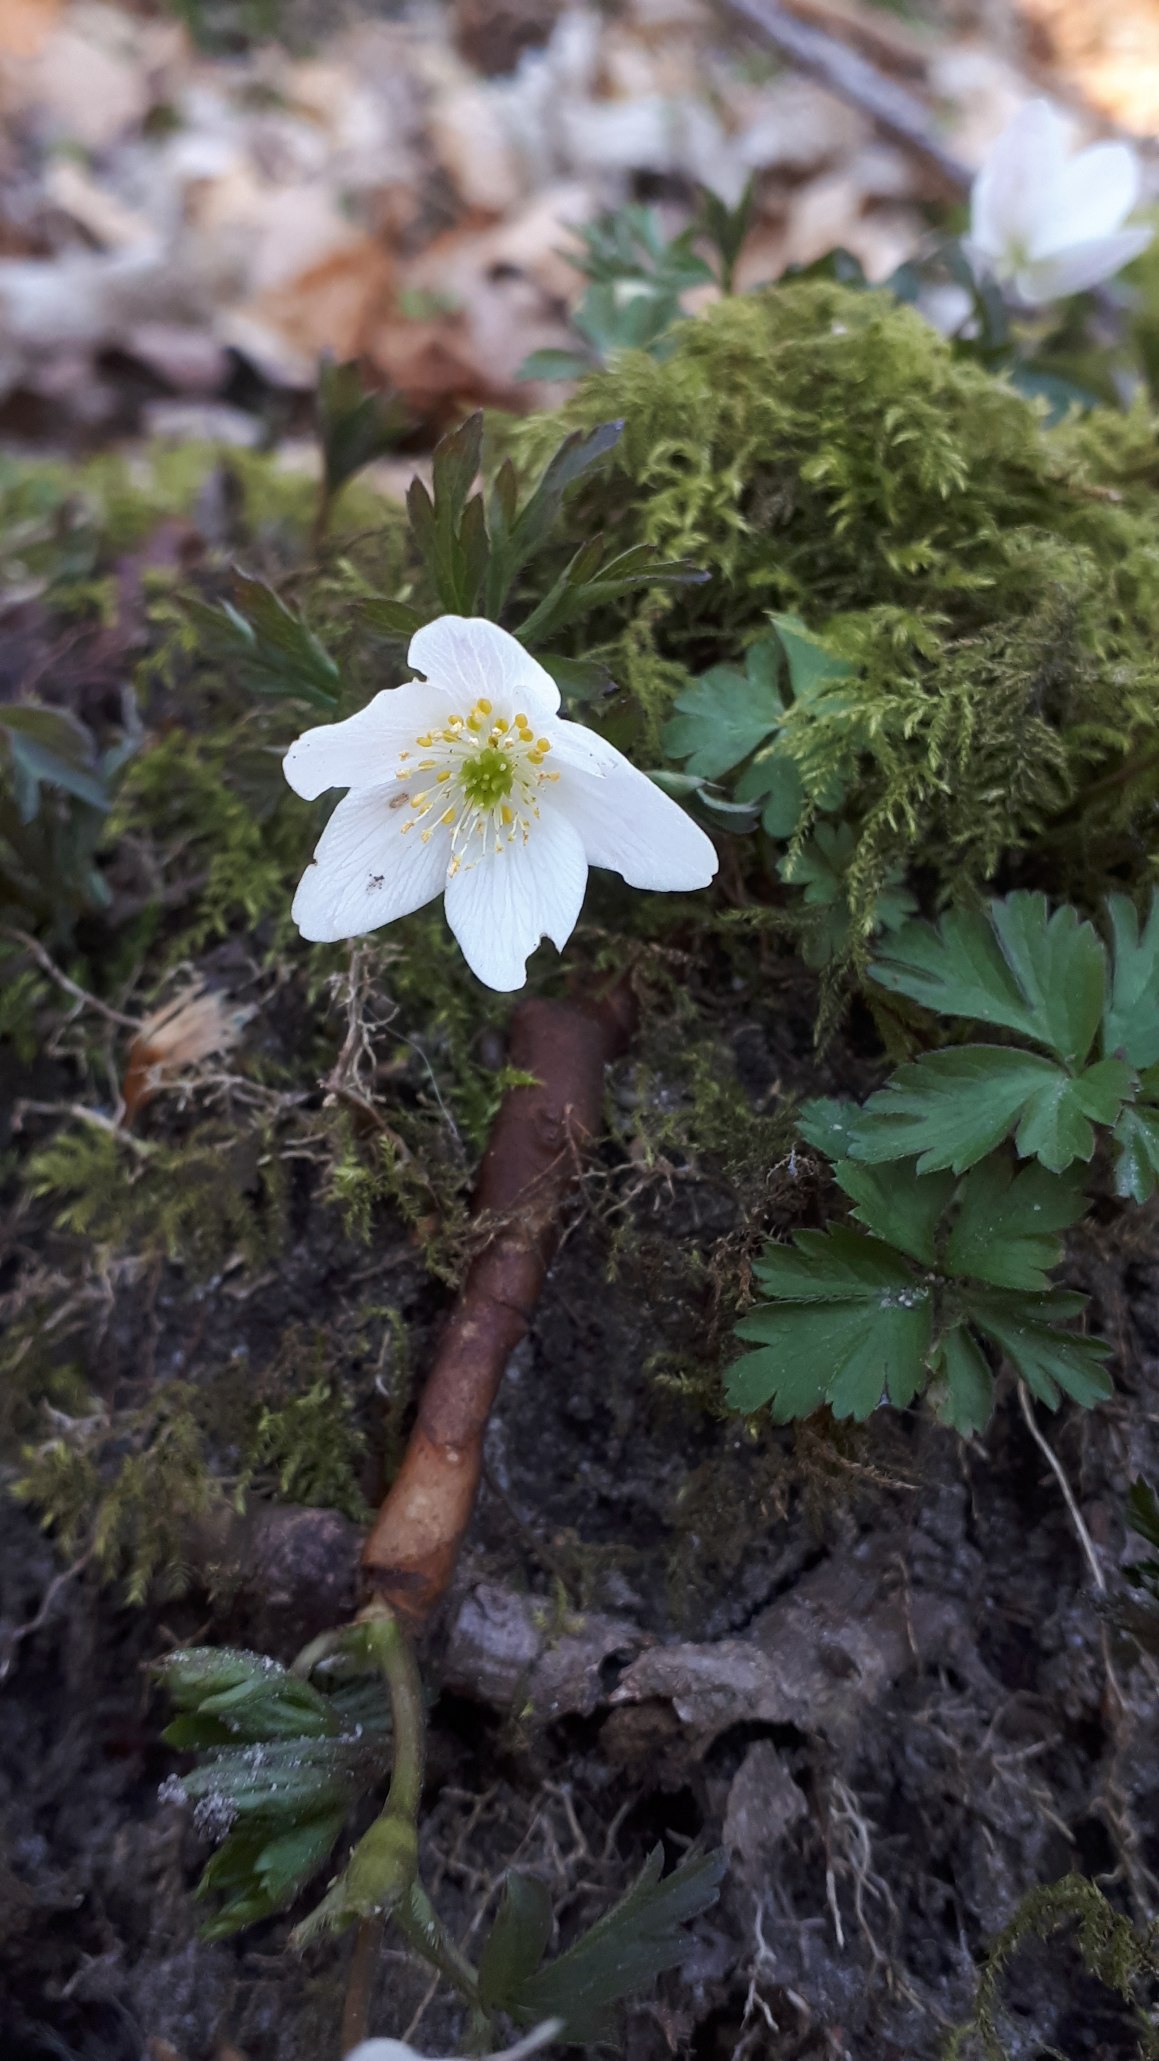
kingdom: Plantae
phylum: Tracheophyta
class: Magnoliopsida
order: Ranunculales
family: Ranunculaceae
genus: Anemone
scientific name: Anemone nemorosa
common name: Hvid anemone
